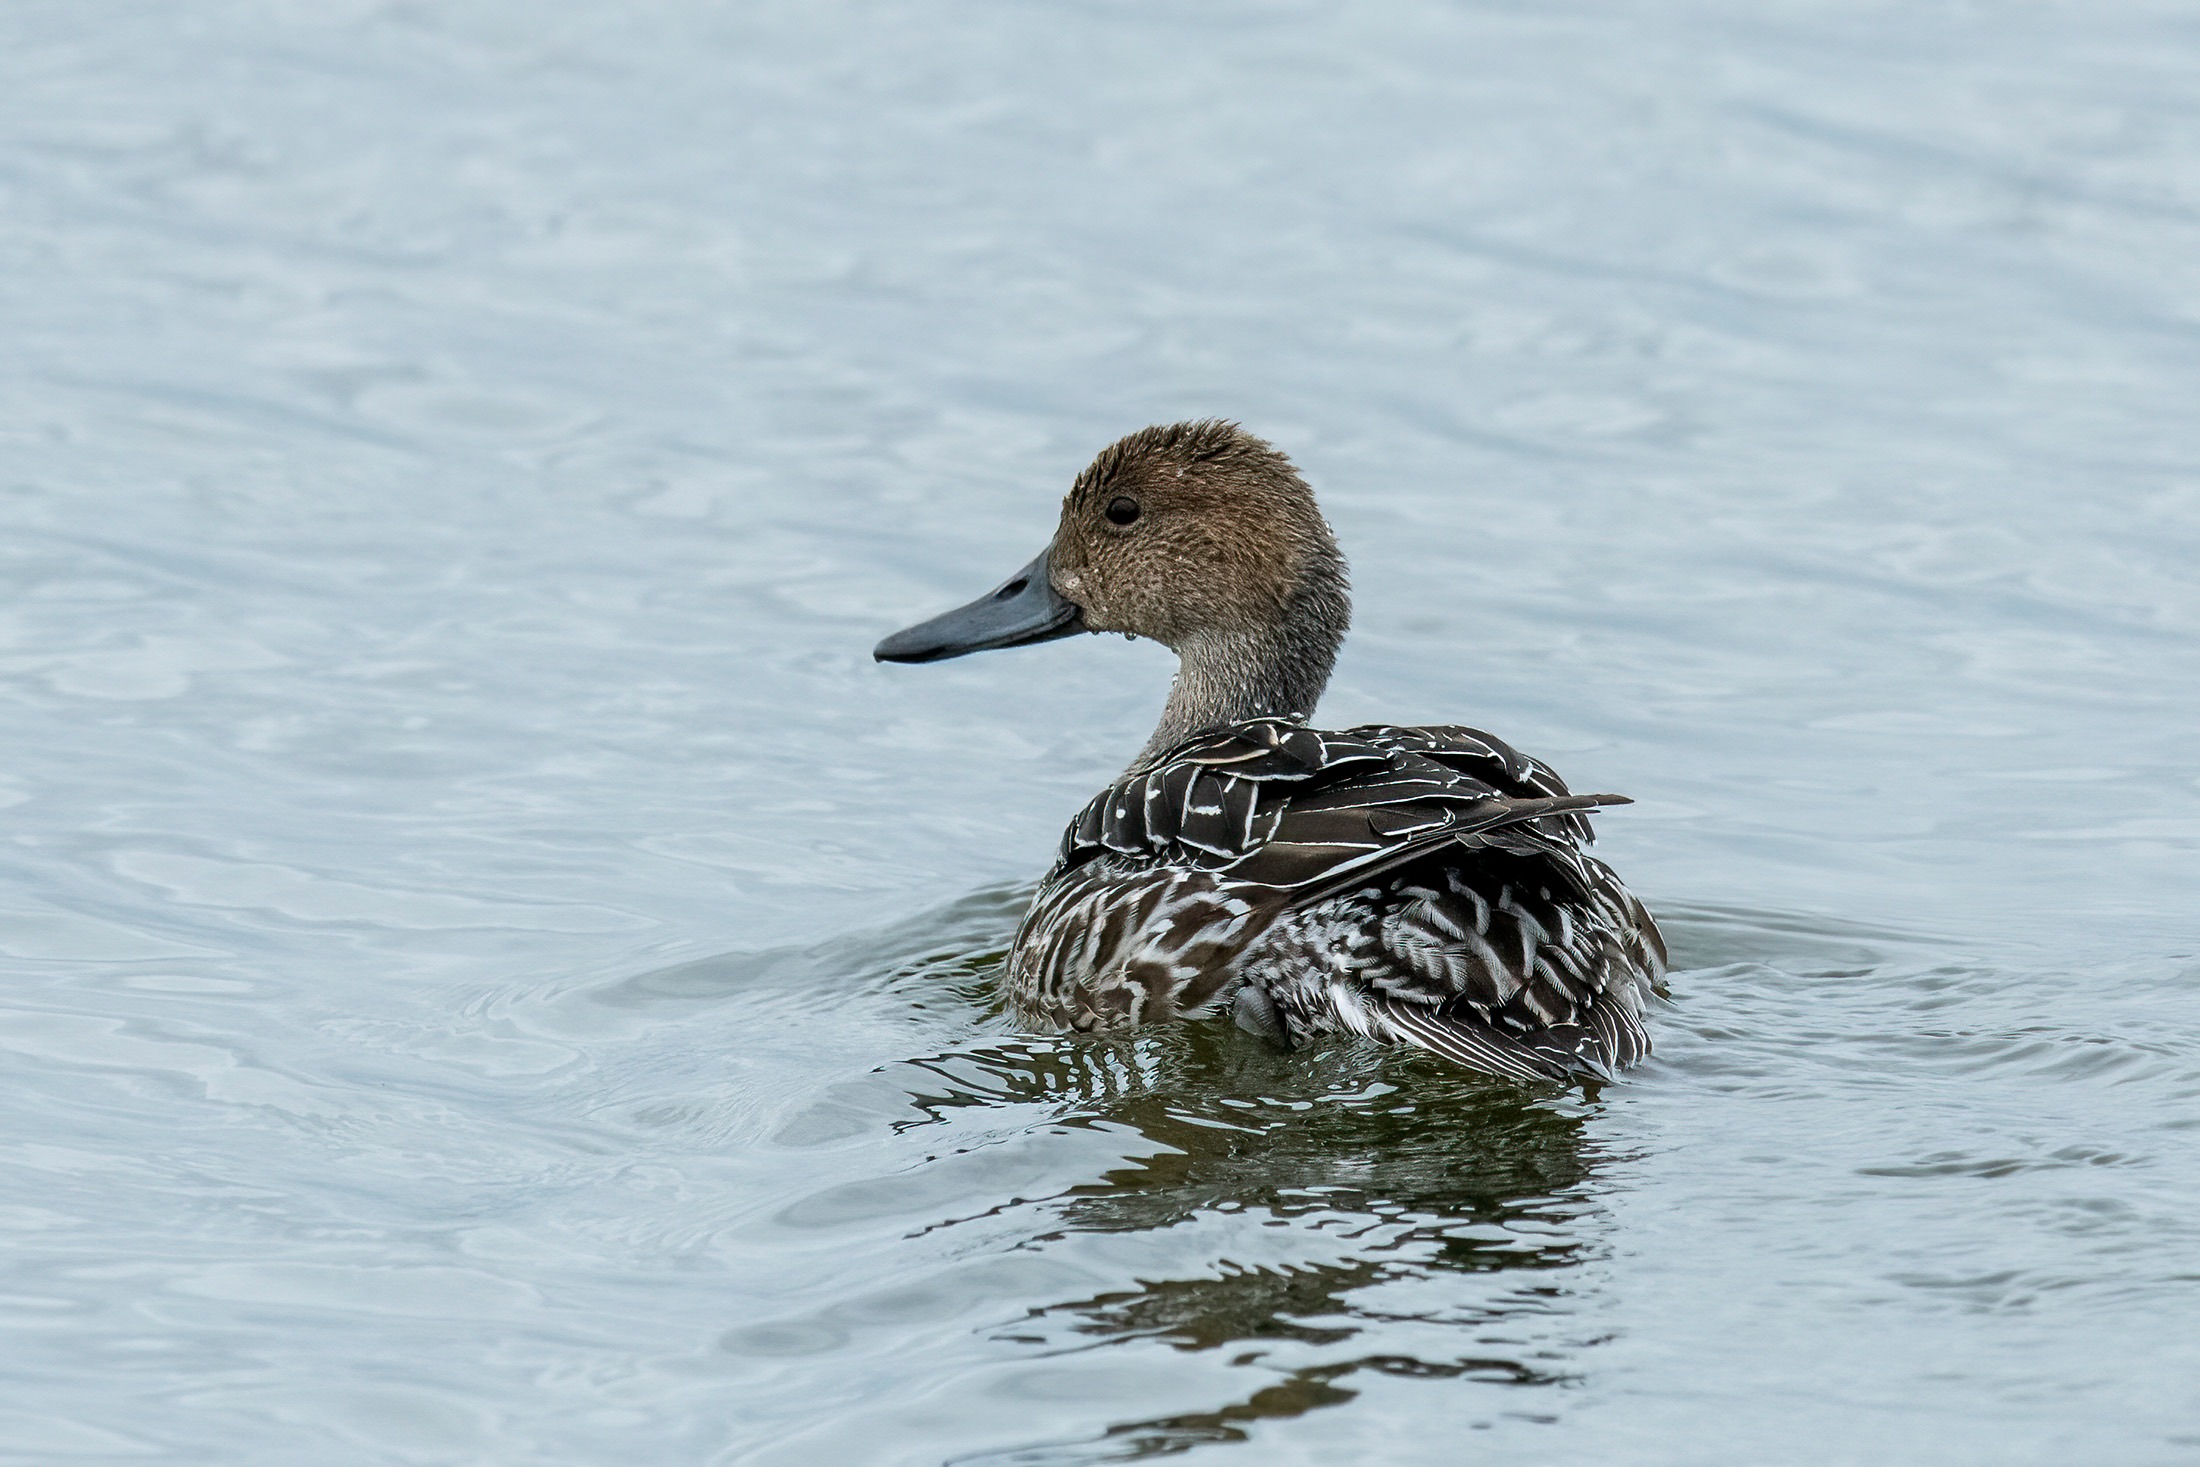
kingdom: Animalia
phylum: Chordata
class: Aves
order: Anseriformes
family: Anatidae
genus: Anas
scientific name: Anas acuta
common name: Spidsand
